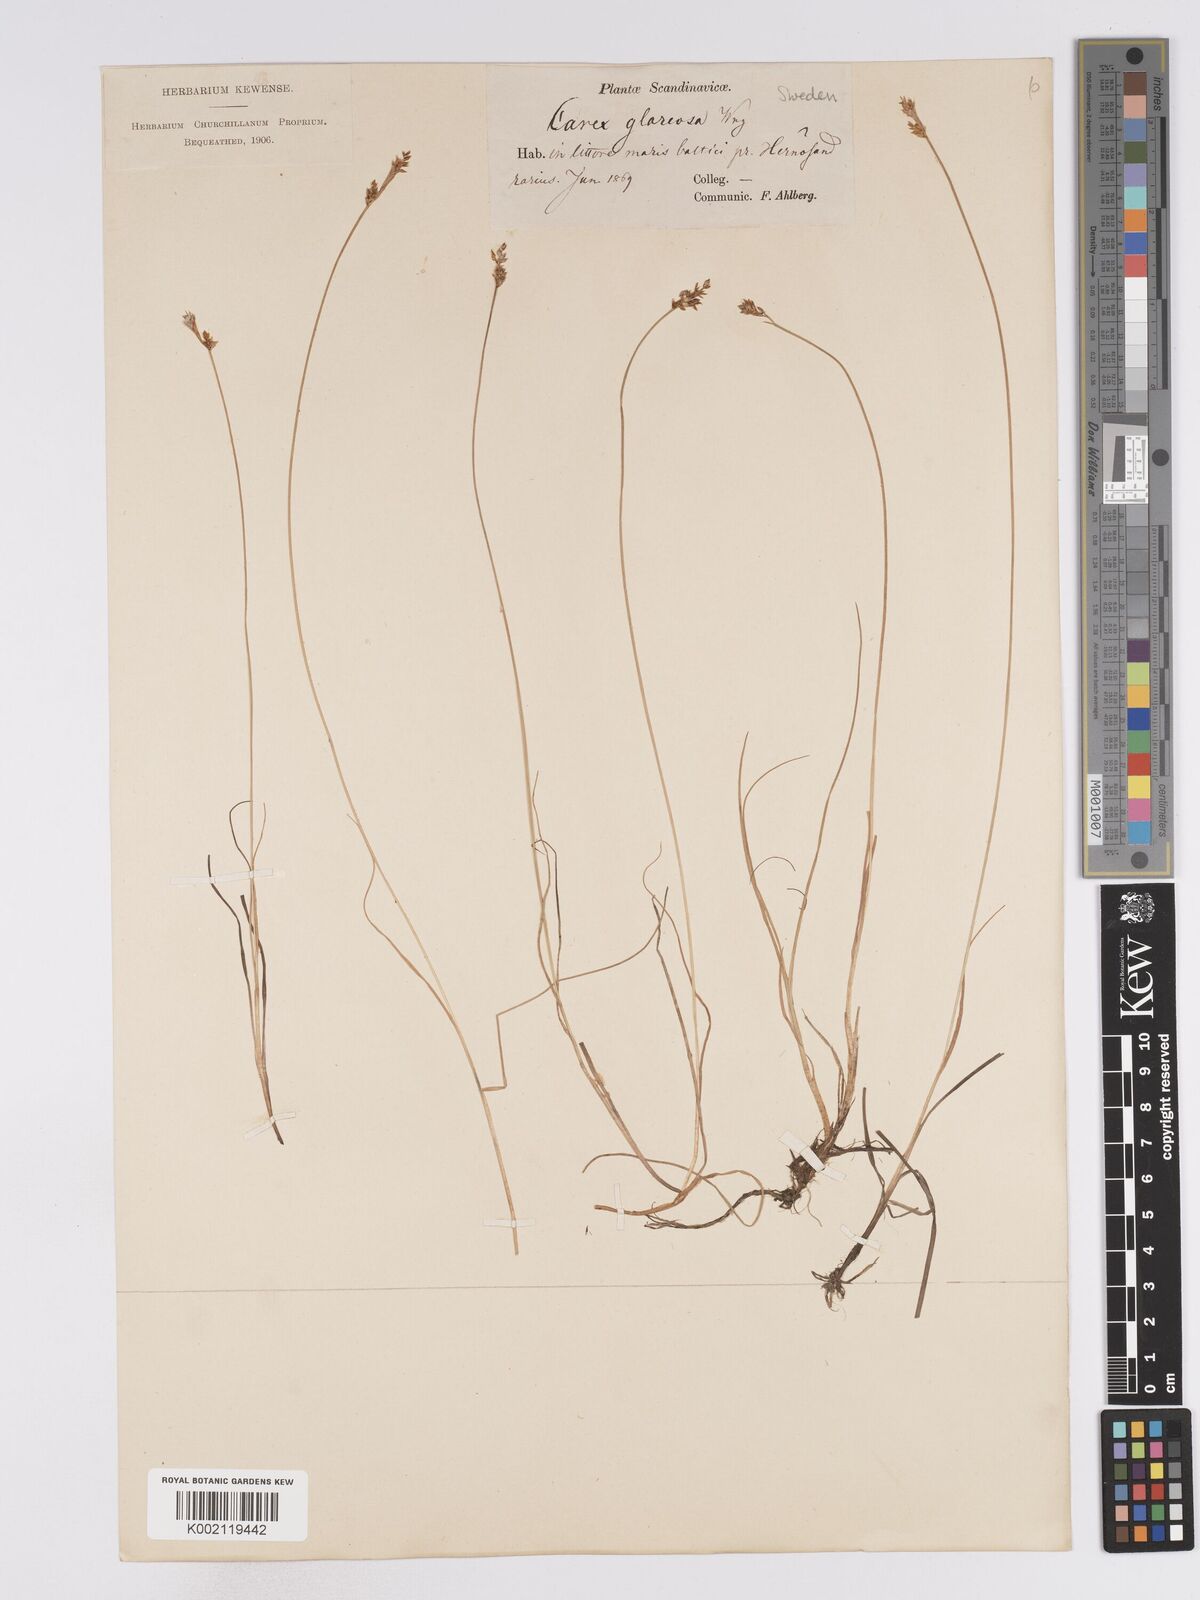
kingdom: Plantae
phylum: Tracheophyta
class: Liliopsida
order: Poales
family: Cyperaceae
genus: Carex
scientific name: Carex glareosa
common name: Clustered sedge
